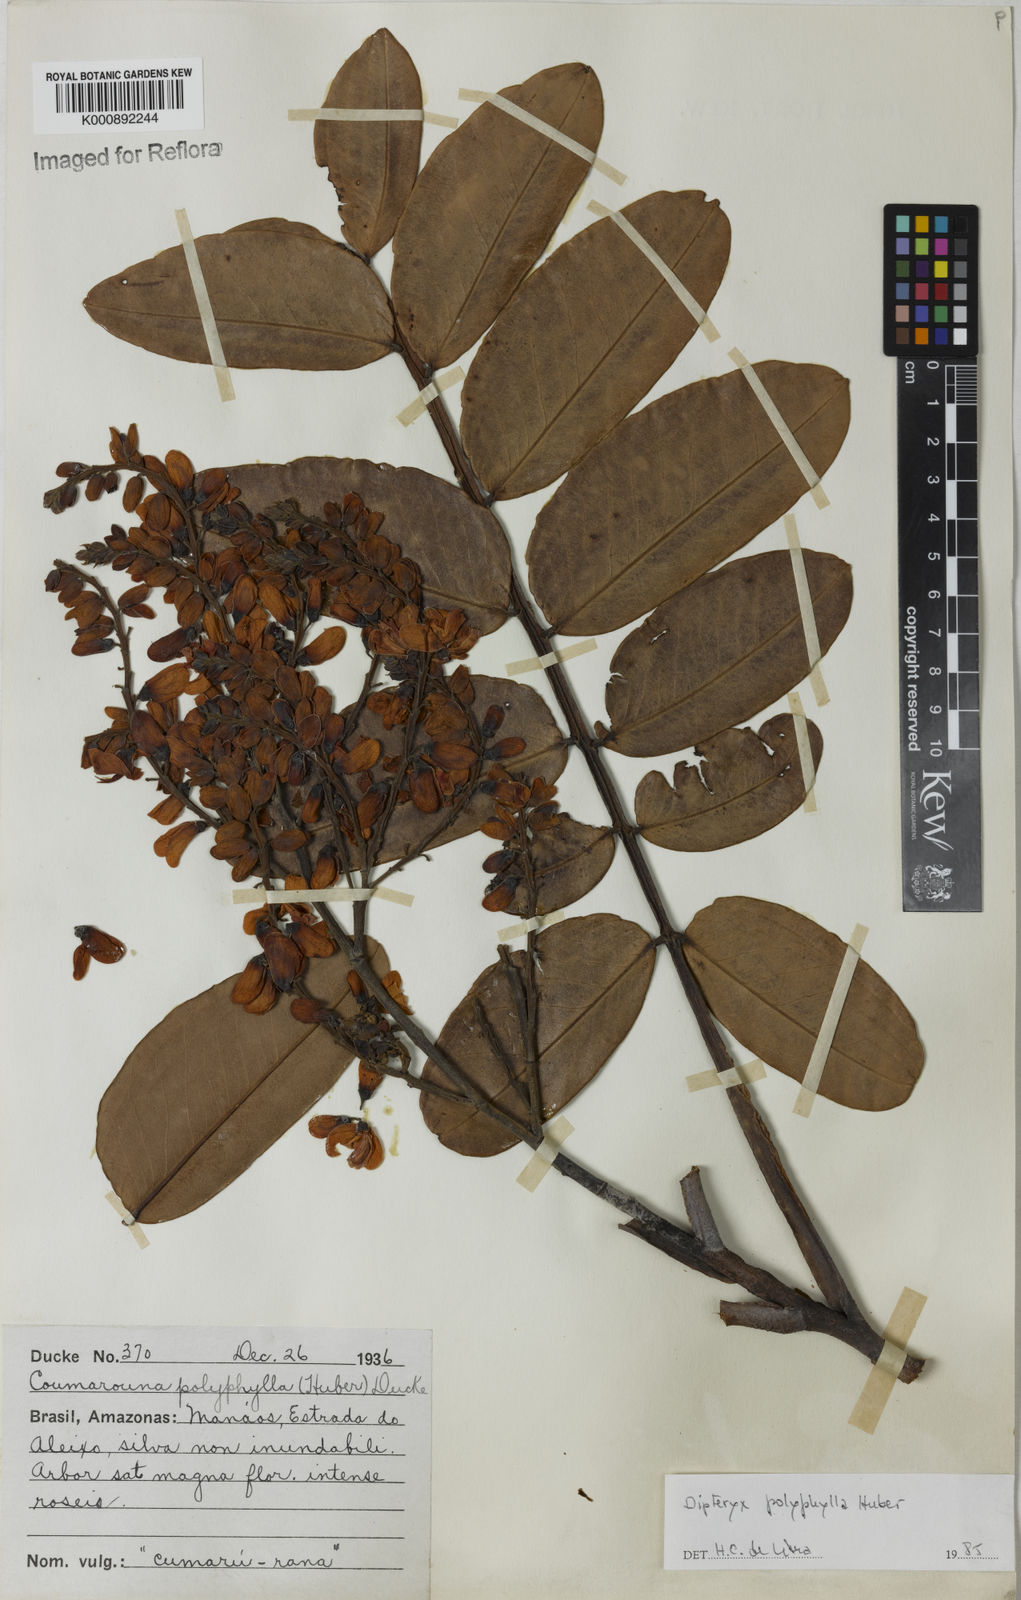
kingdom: Plantae
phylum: Tracheophyta
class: Magnoliopsida
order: Fabales
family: Fabaceae
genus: Dipteryx
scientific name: Dipteryx polyphylla
